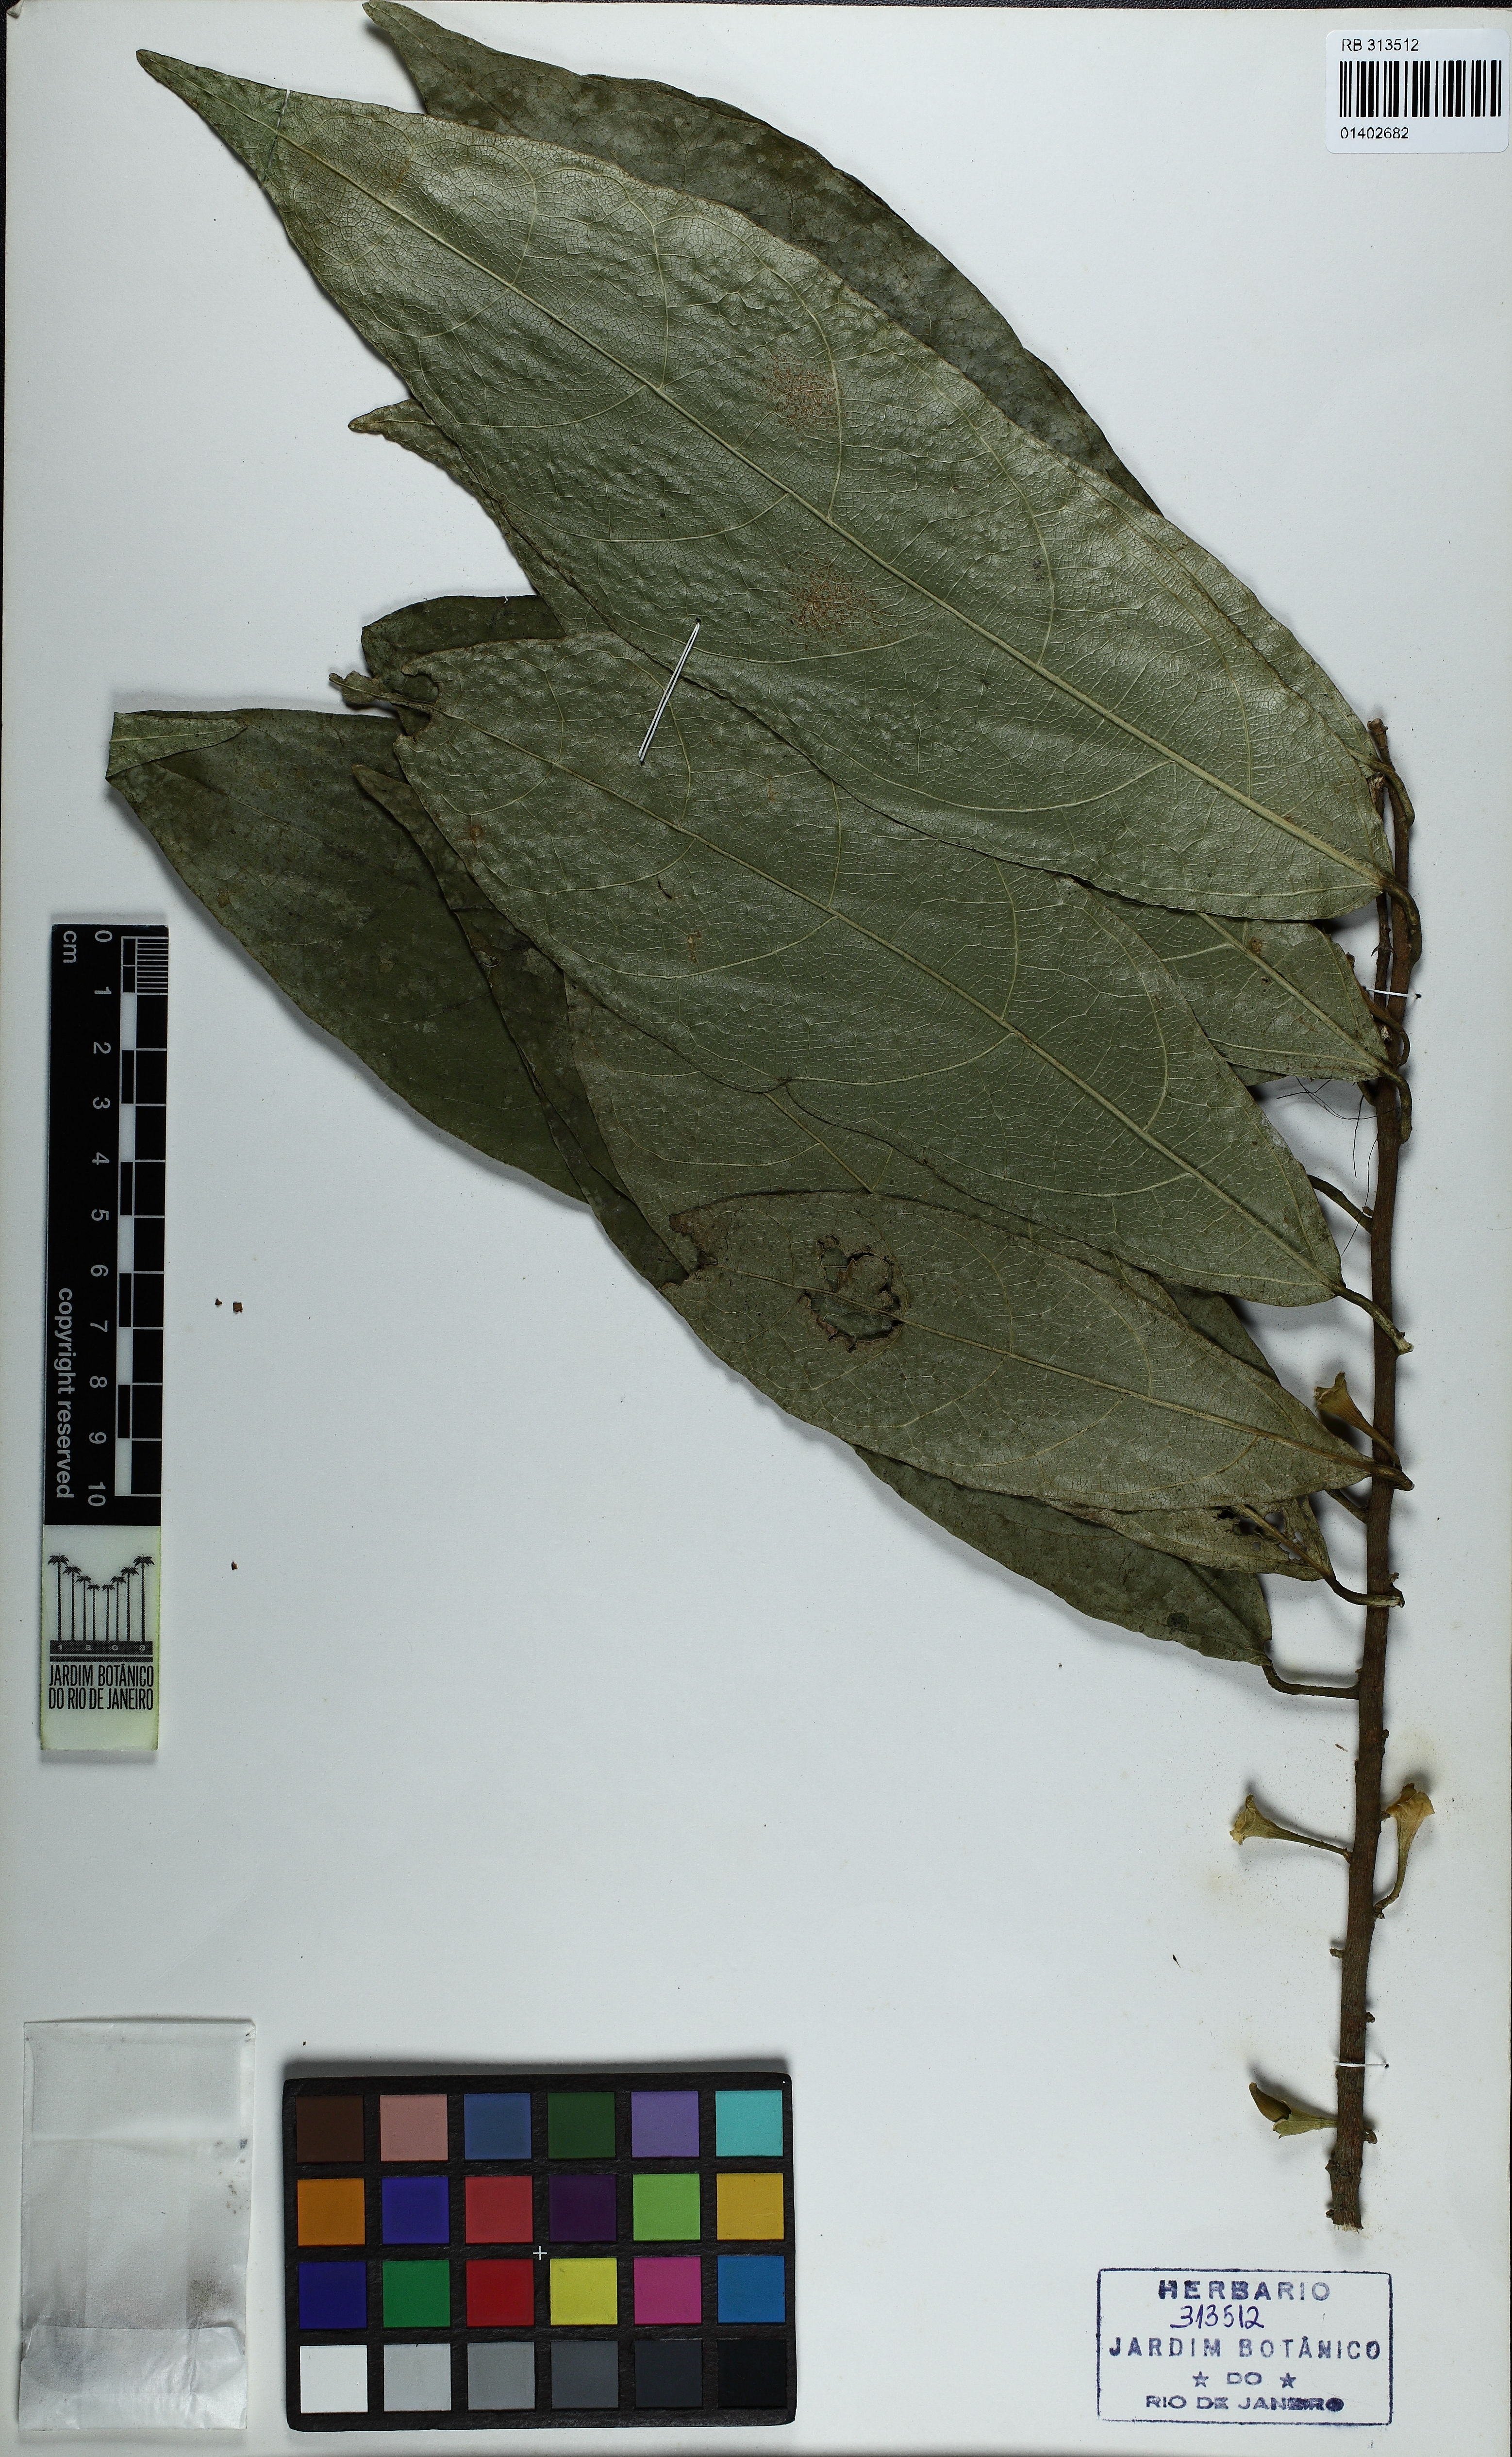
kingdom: Plantae
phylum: Tracheophyta
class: Magnoliopsida
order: Malvales
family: Malvaceae
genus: Quararibea
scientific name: Quararibea similis
